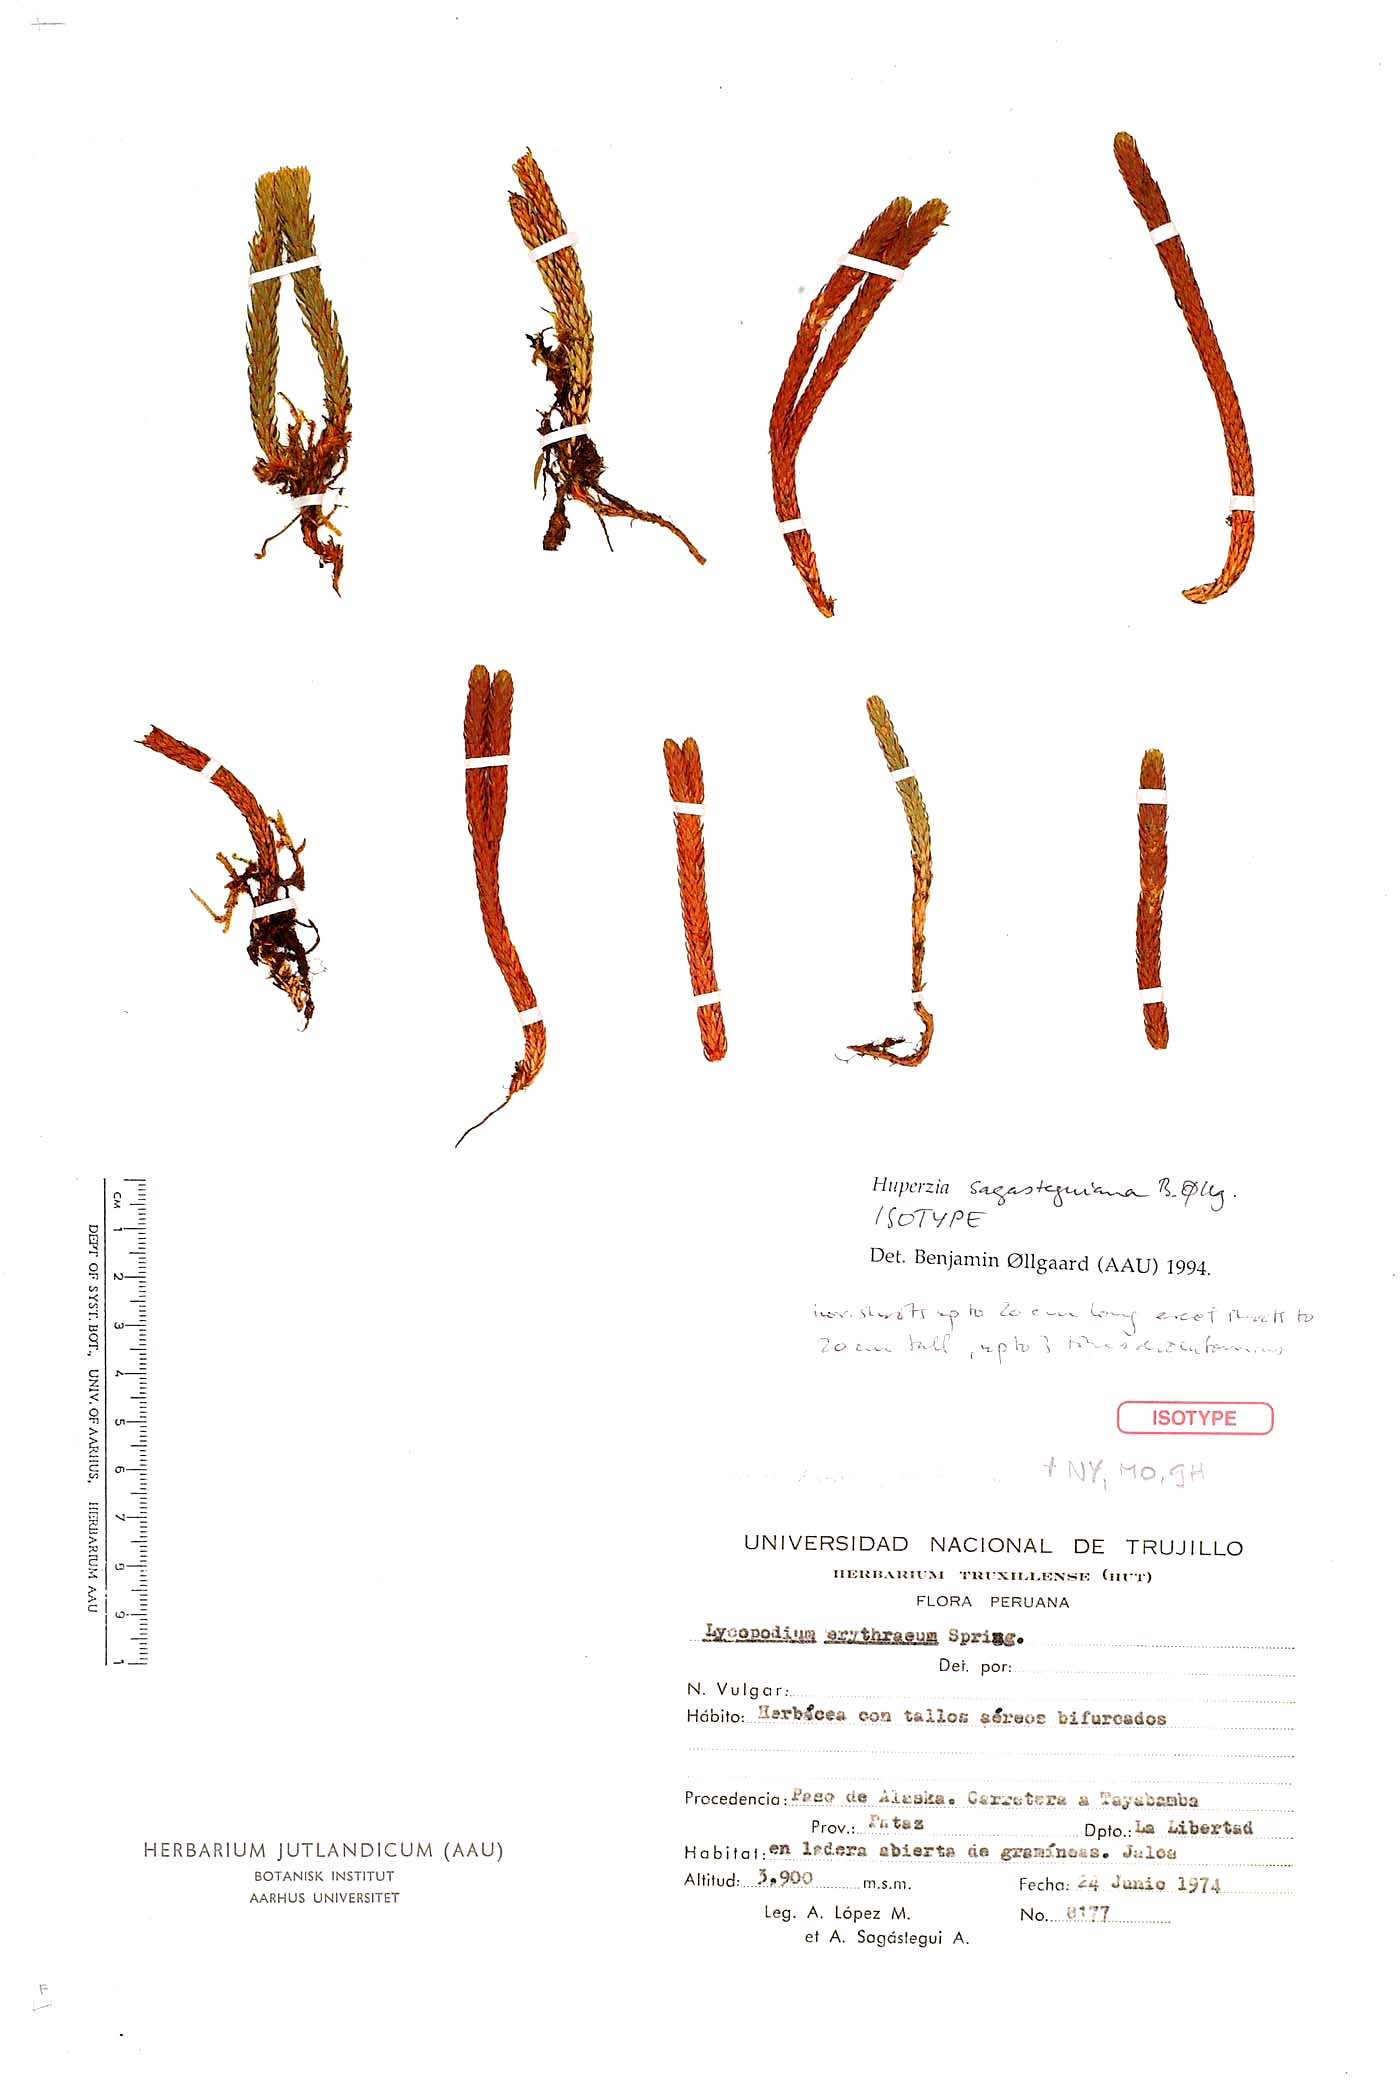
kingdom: Plantae
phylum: Tracheophyta
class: Lycopodiopsida
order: Lycopodiales
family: Lycopodiaceae
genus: Phlegmariurus
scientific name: Phlegmariurus sagasteguianus
